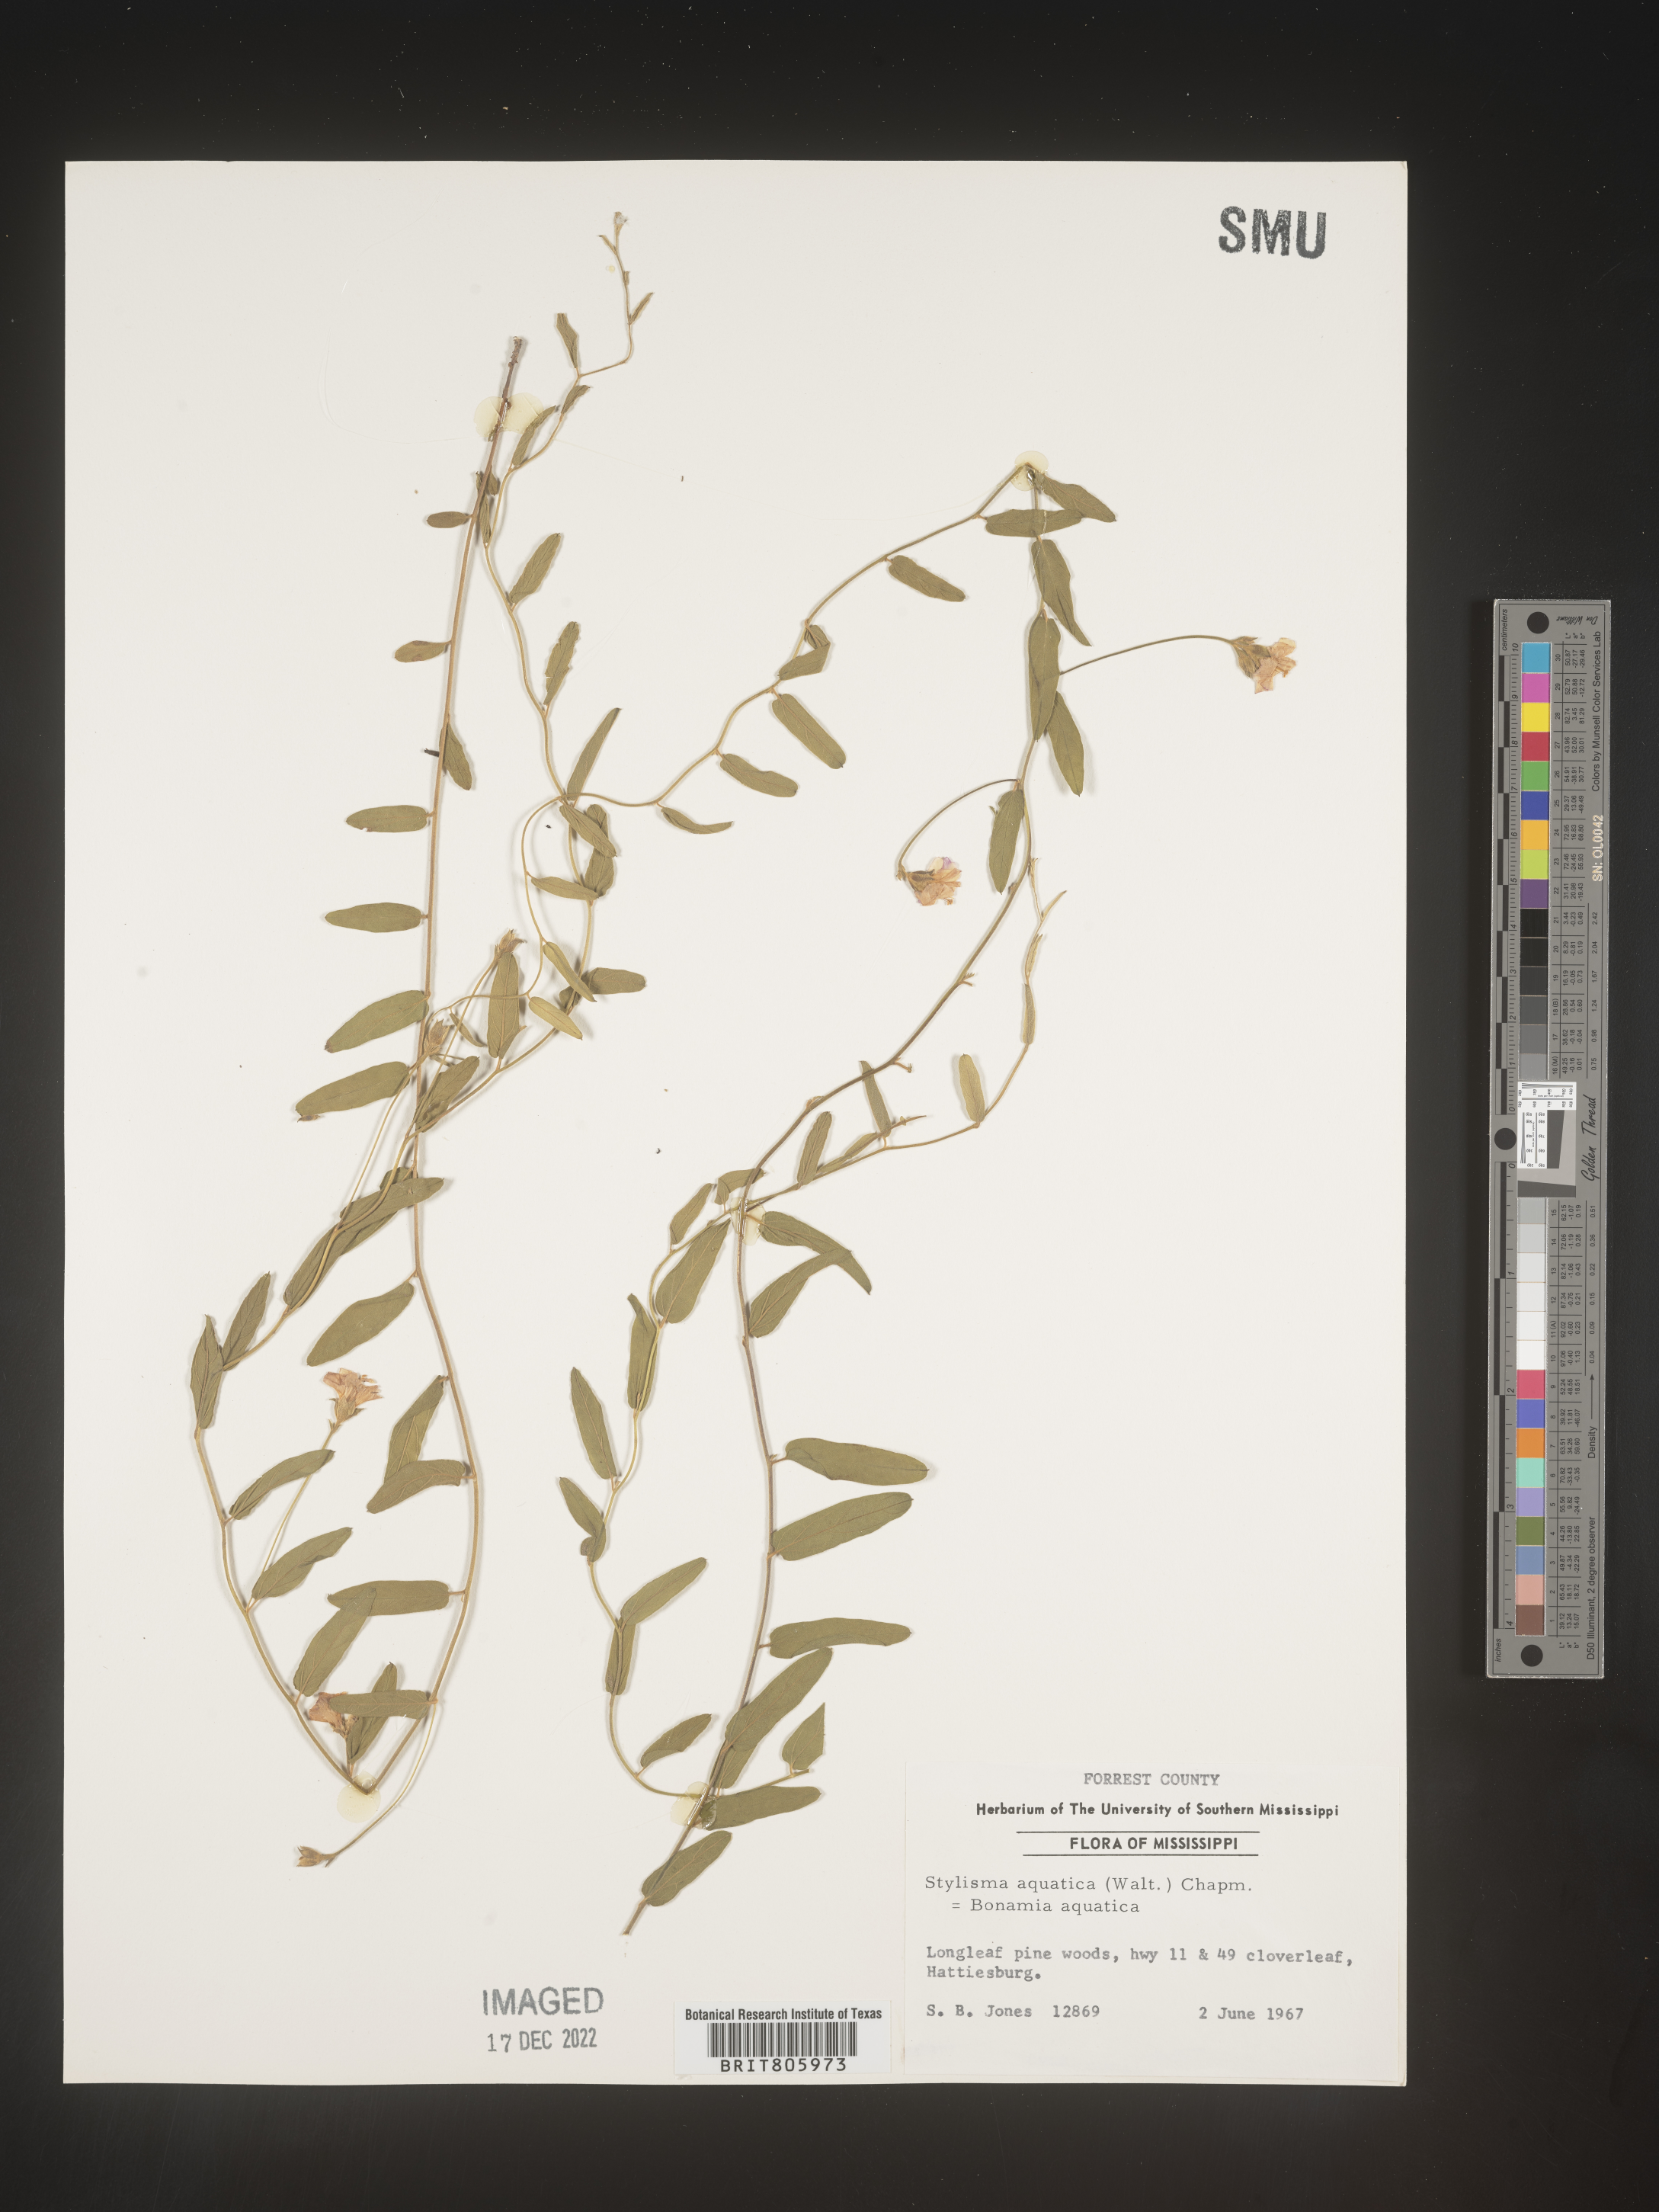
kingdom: Plantae
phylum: Tracheophyta
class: Magnoliopsida
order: Solanales
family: Convolvulaceae
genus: Stylisma
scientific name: Stylisma
